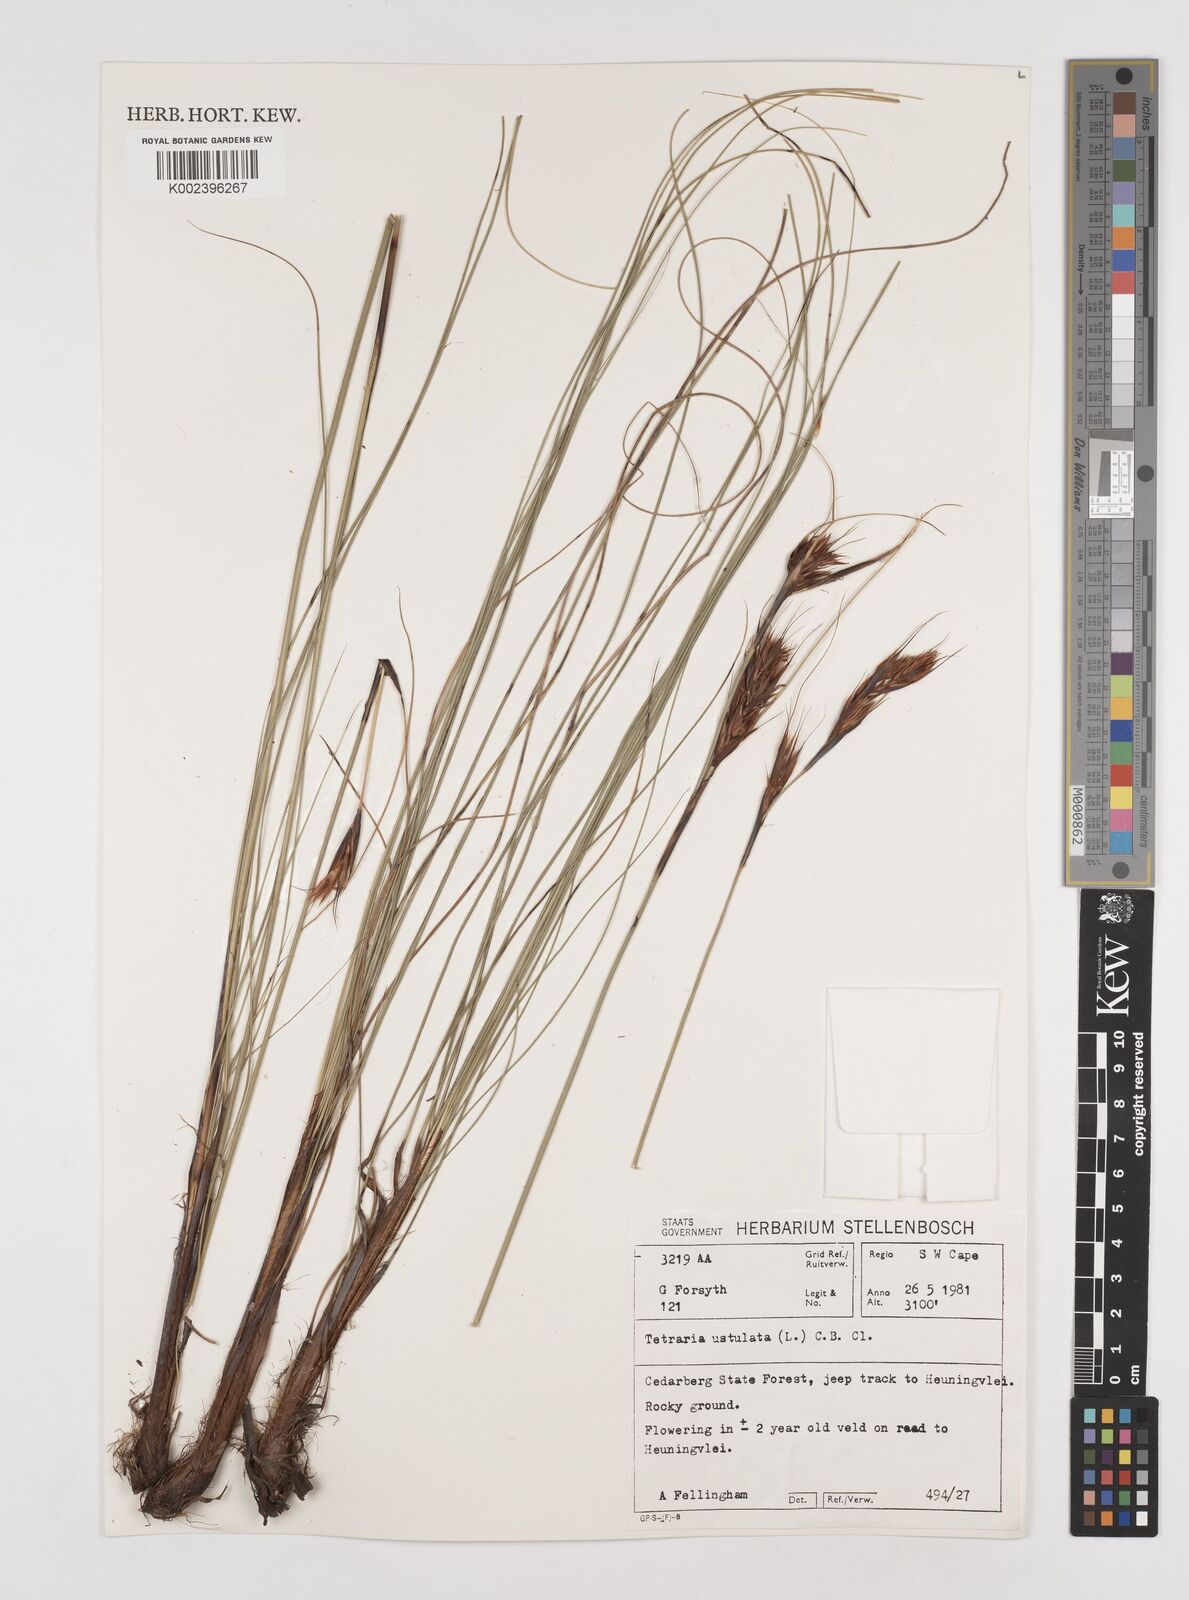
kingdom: Plantae
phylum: Tracheophyta
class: Liliopsida
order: Poales
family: Cyperaceae
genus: Tetraria
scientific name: Tetraria ustulata
